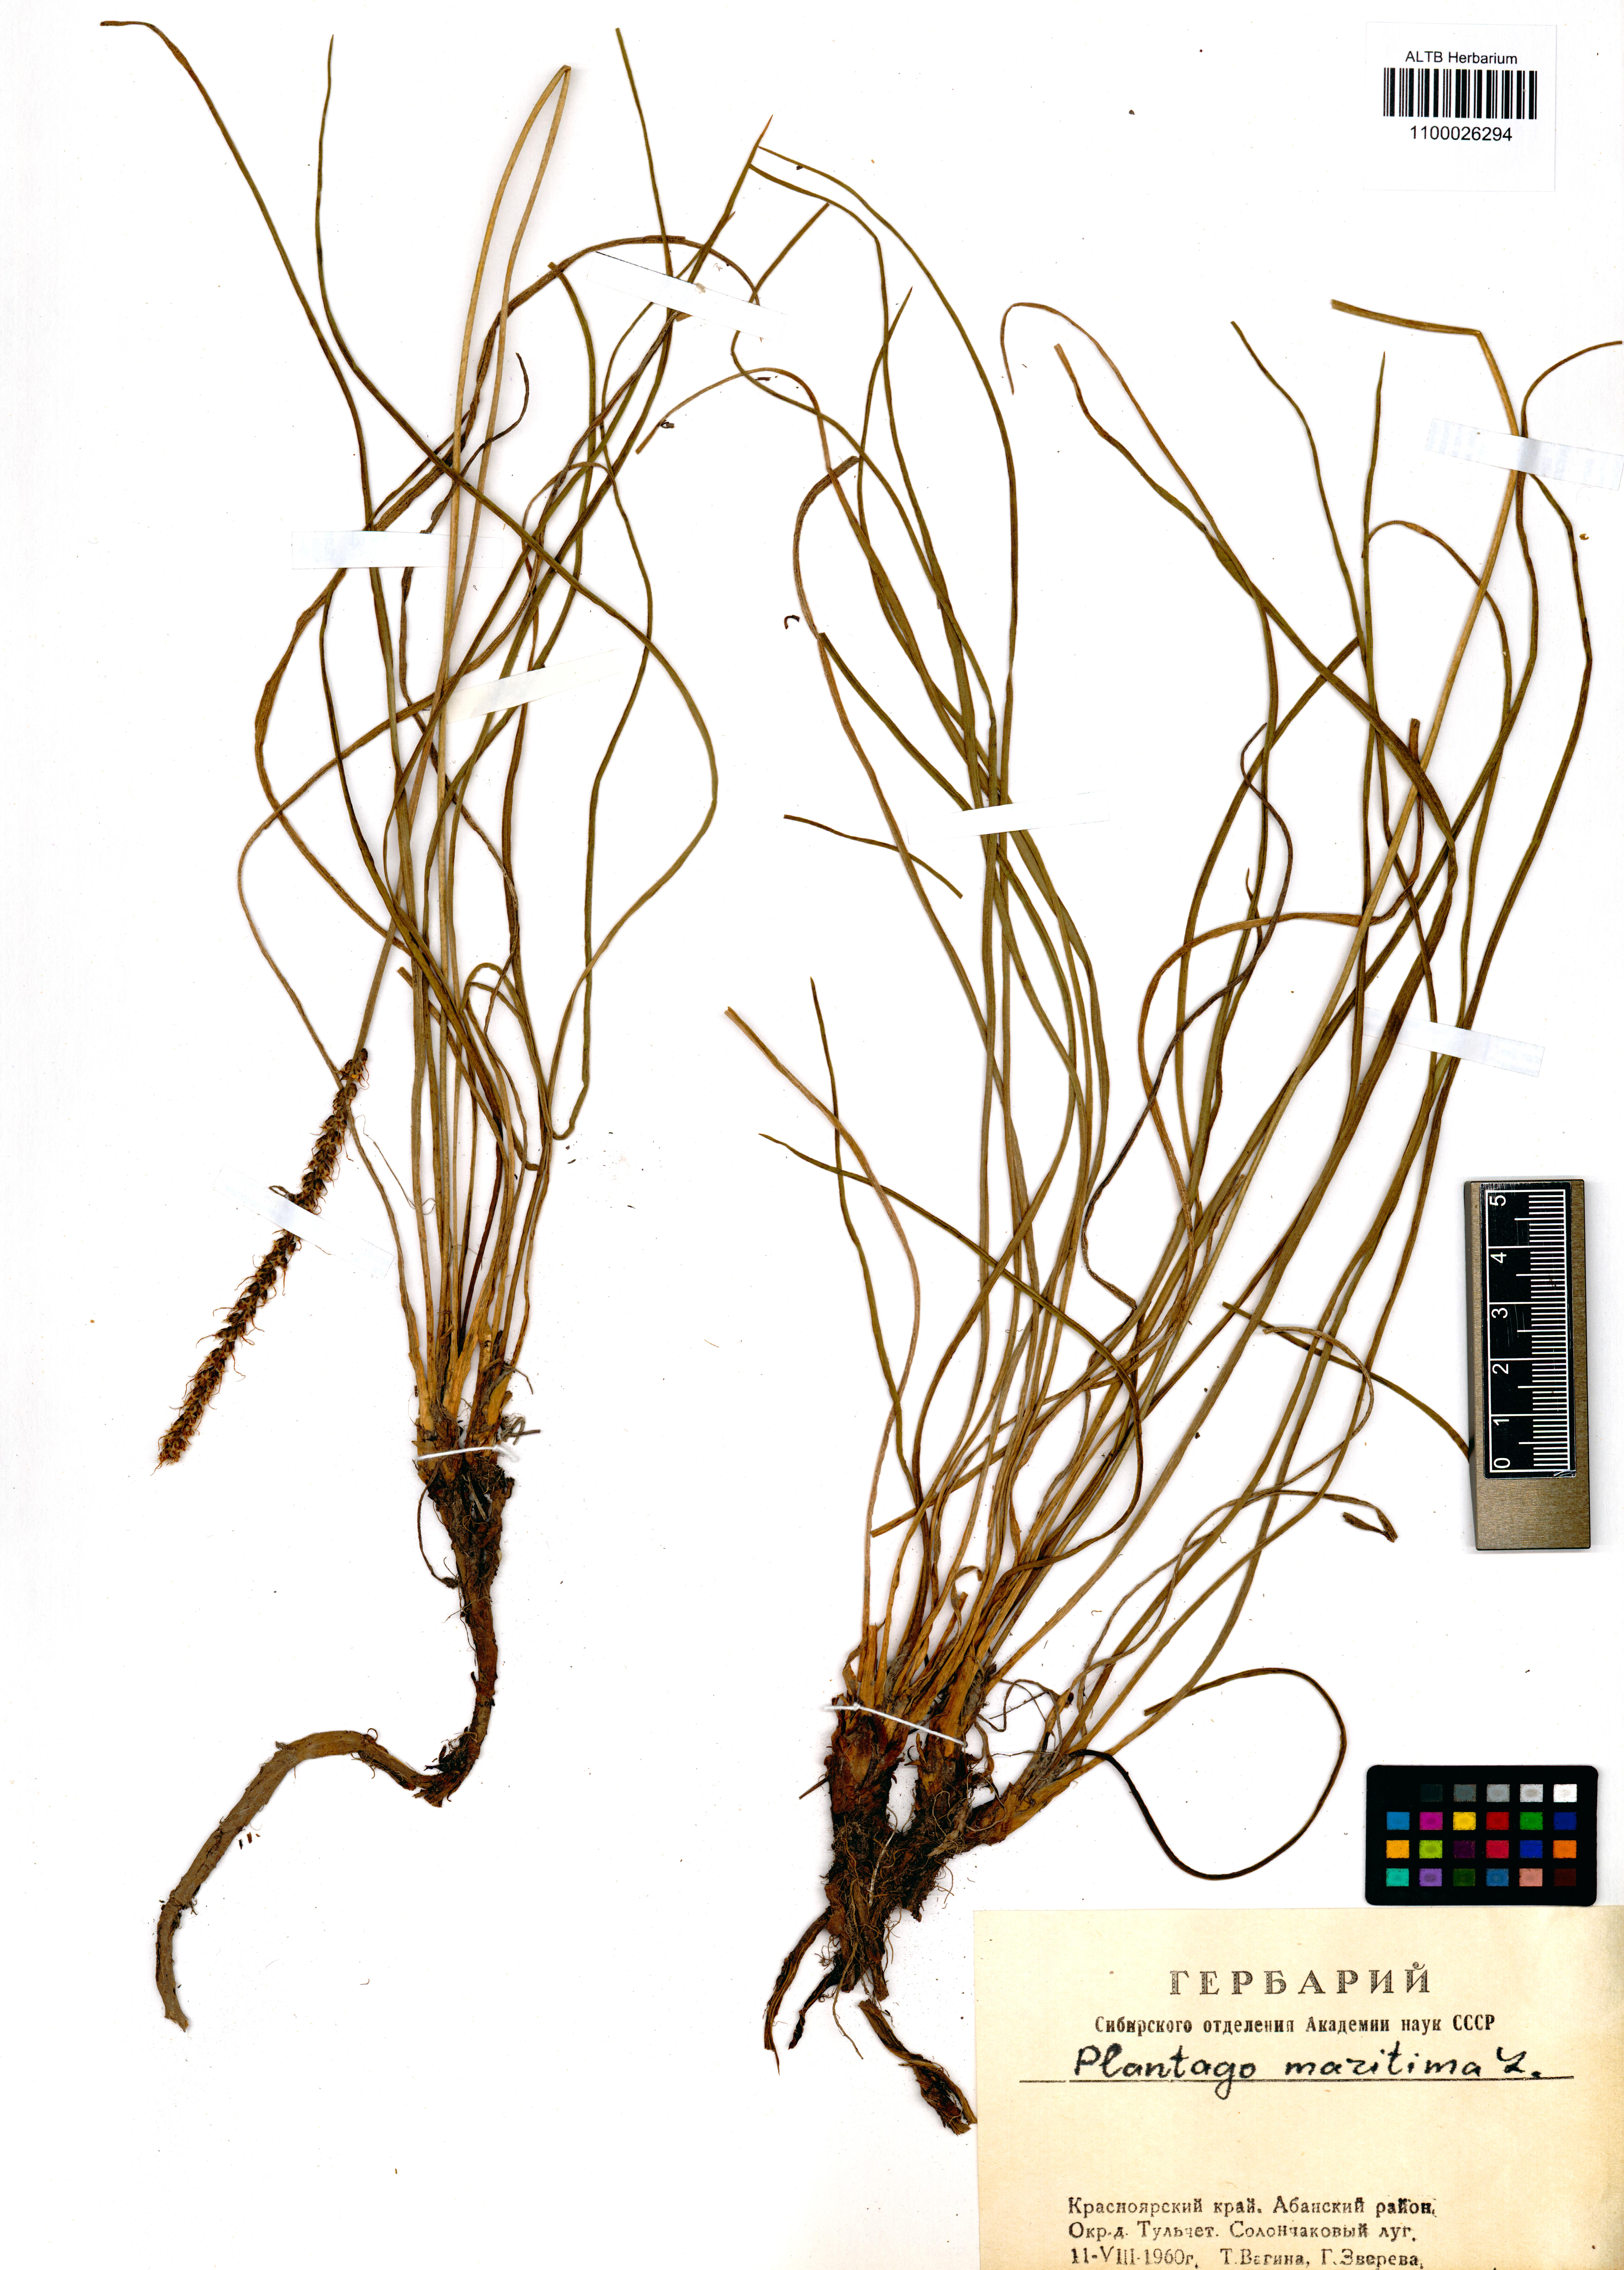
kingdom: Plantae
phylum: Tracheophyta
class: Magnoliopsida
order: Lamiales
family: Plantaginaceae
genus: Plantago
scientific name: Plantago maritima
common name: Sea plantain
